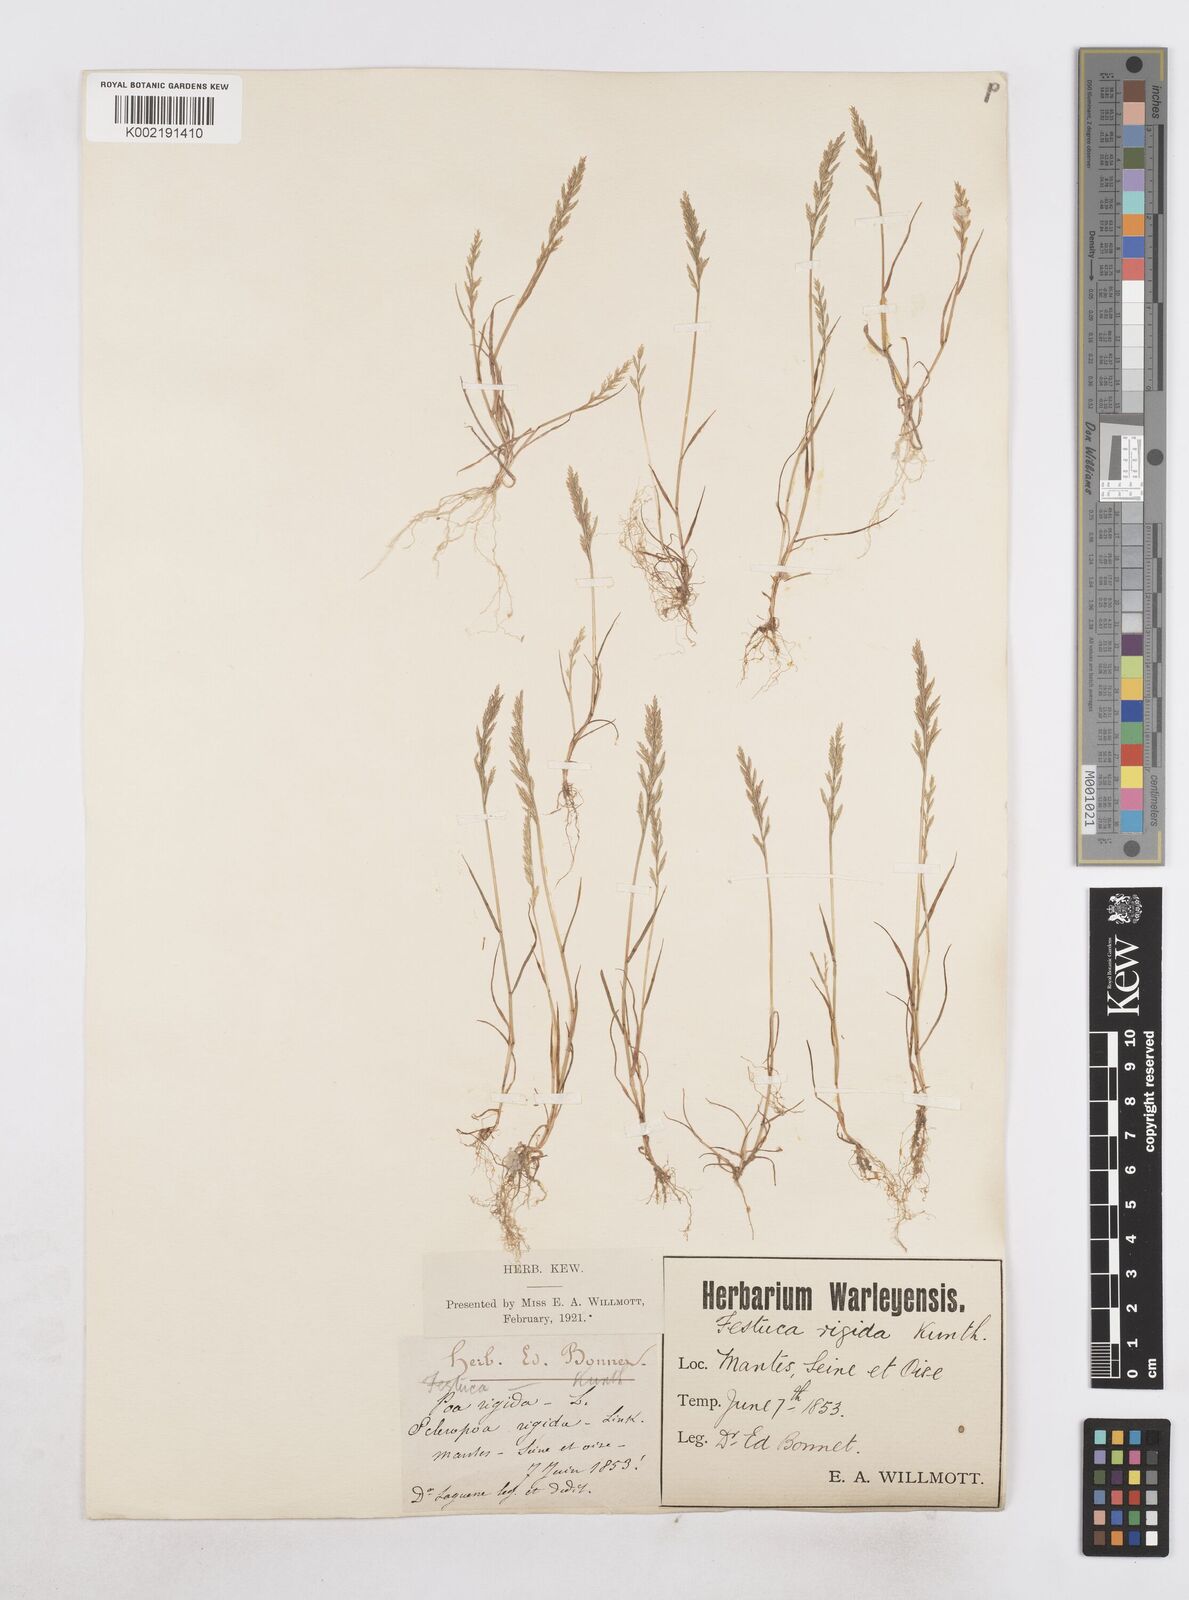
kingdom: Plantae
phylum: Tracheophyta
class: Liliopsida
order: Poales
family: Poaceae
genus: Catapodium
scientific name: Catapodium rigidum
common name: Fern-grass
